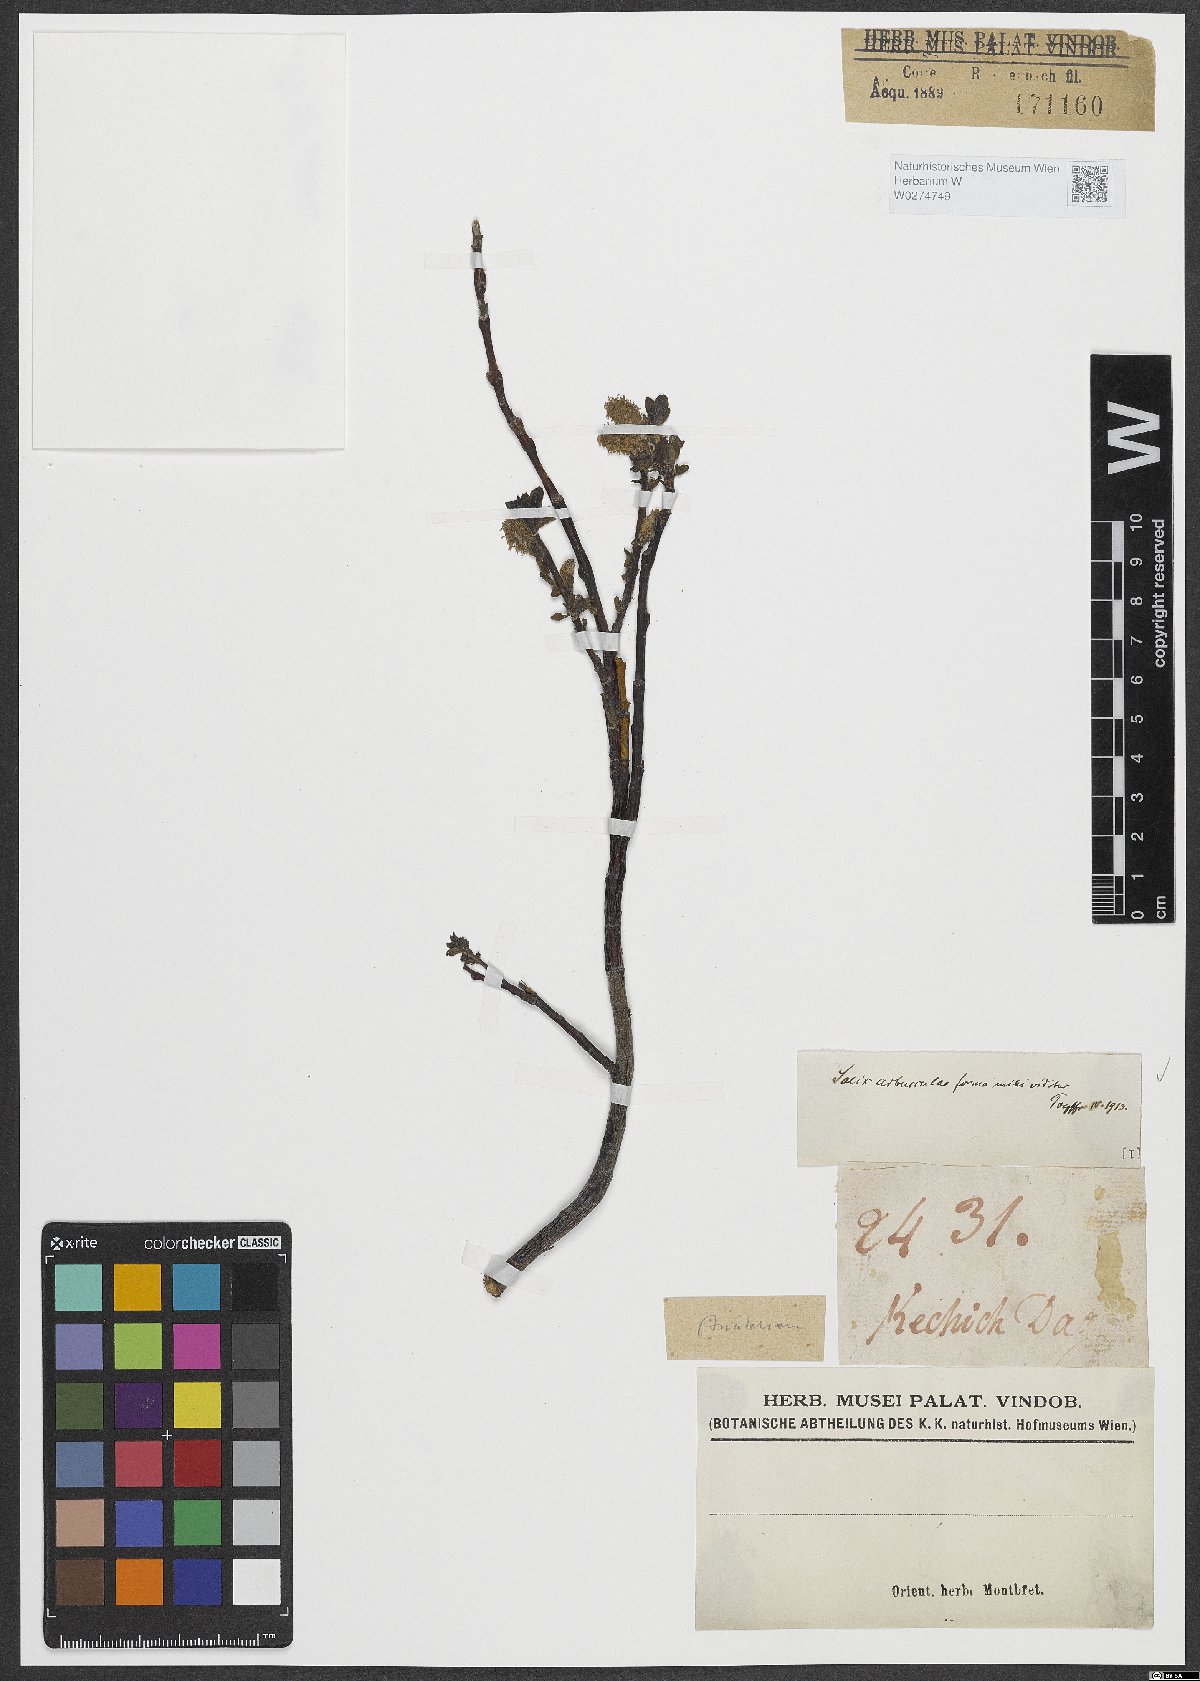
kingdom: Plantae
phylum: Tracheophyta
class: Magnoliopsida
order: Malpighiales
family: Salicaceae
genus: Salix
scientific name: Salix arbuscula
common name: Mountain willow
